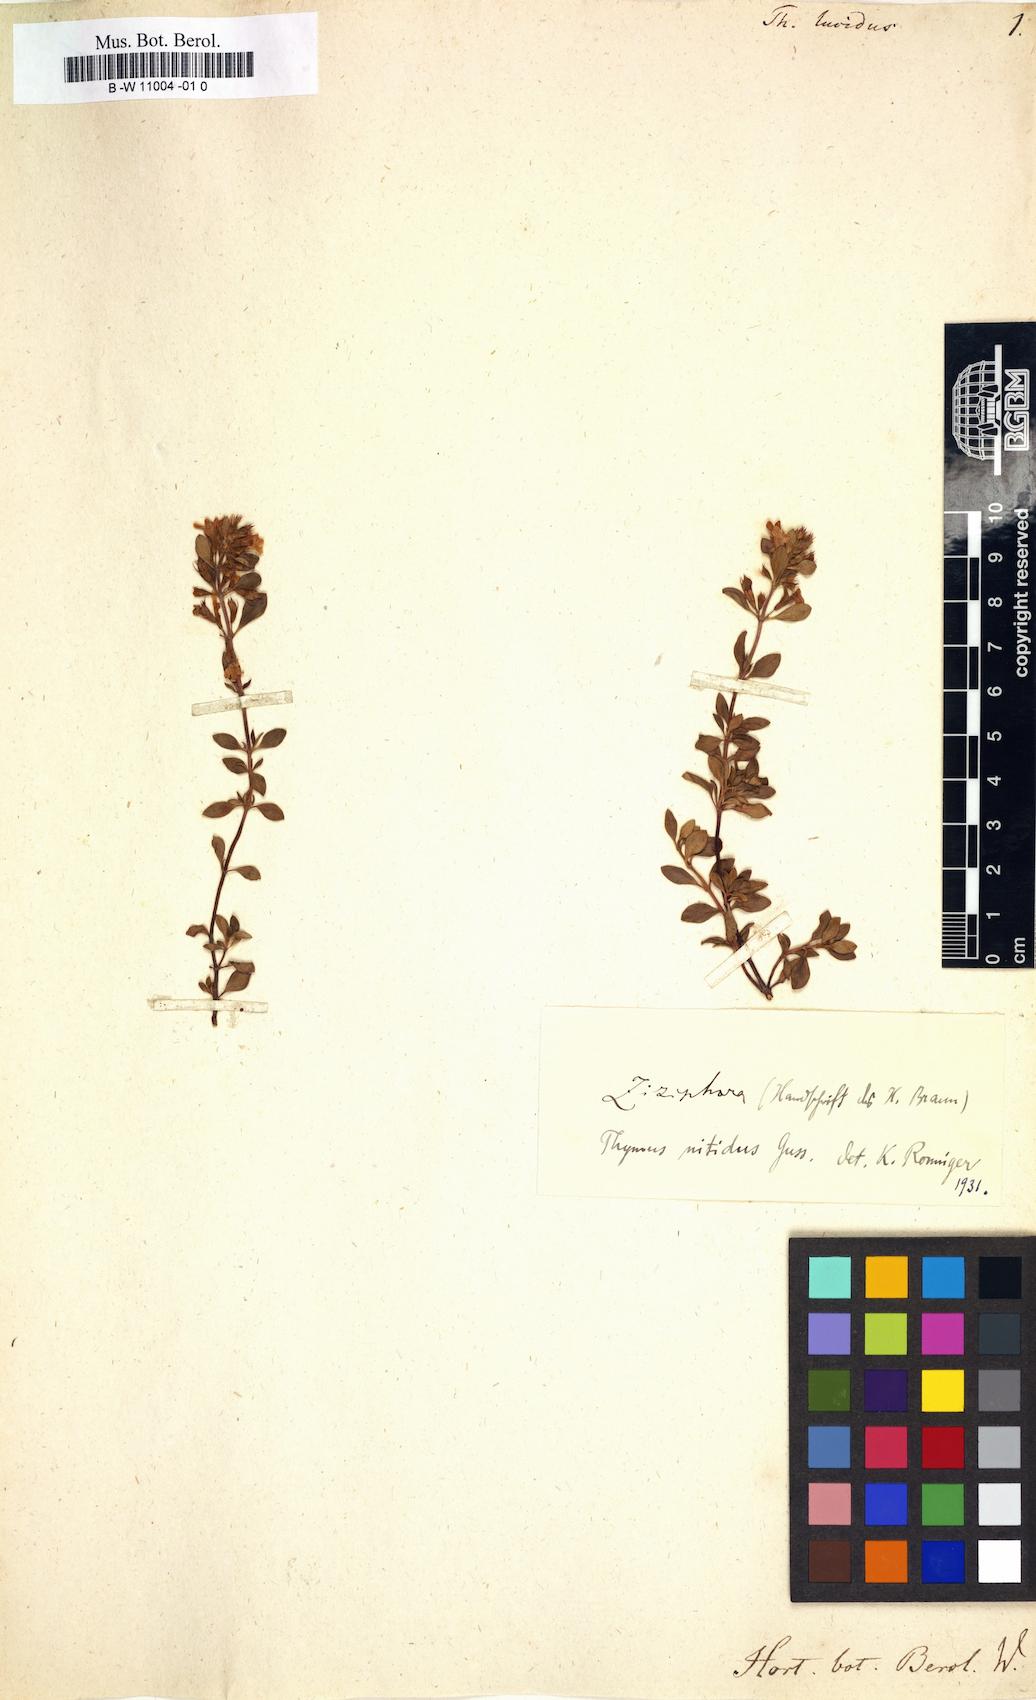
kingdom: Plantae
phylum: Tracheophyta
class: Magnoliopsida
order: Lamiales
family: Lamiaceae
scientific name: Lamiaceae
